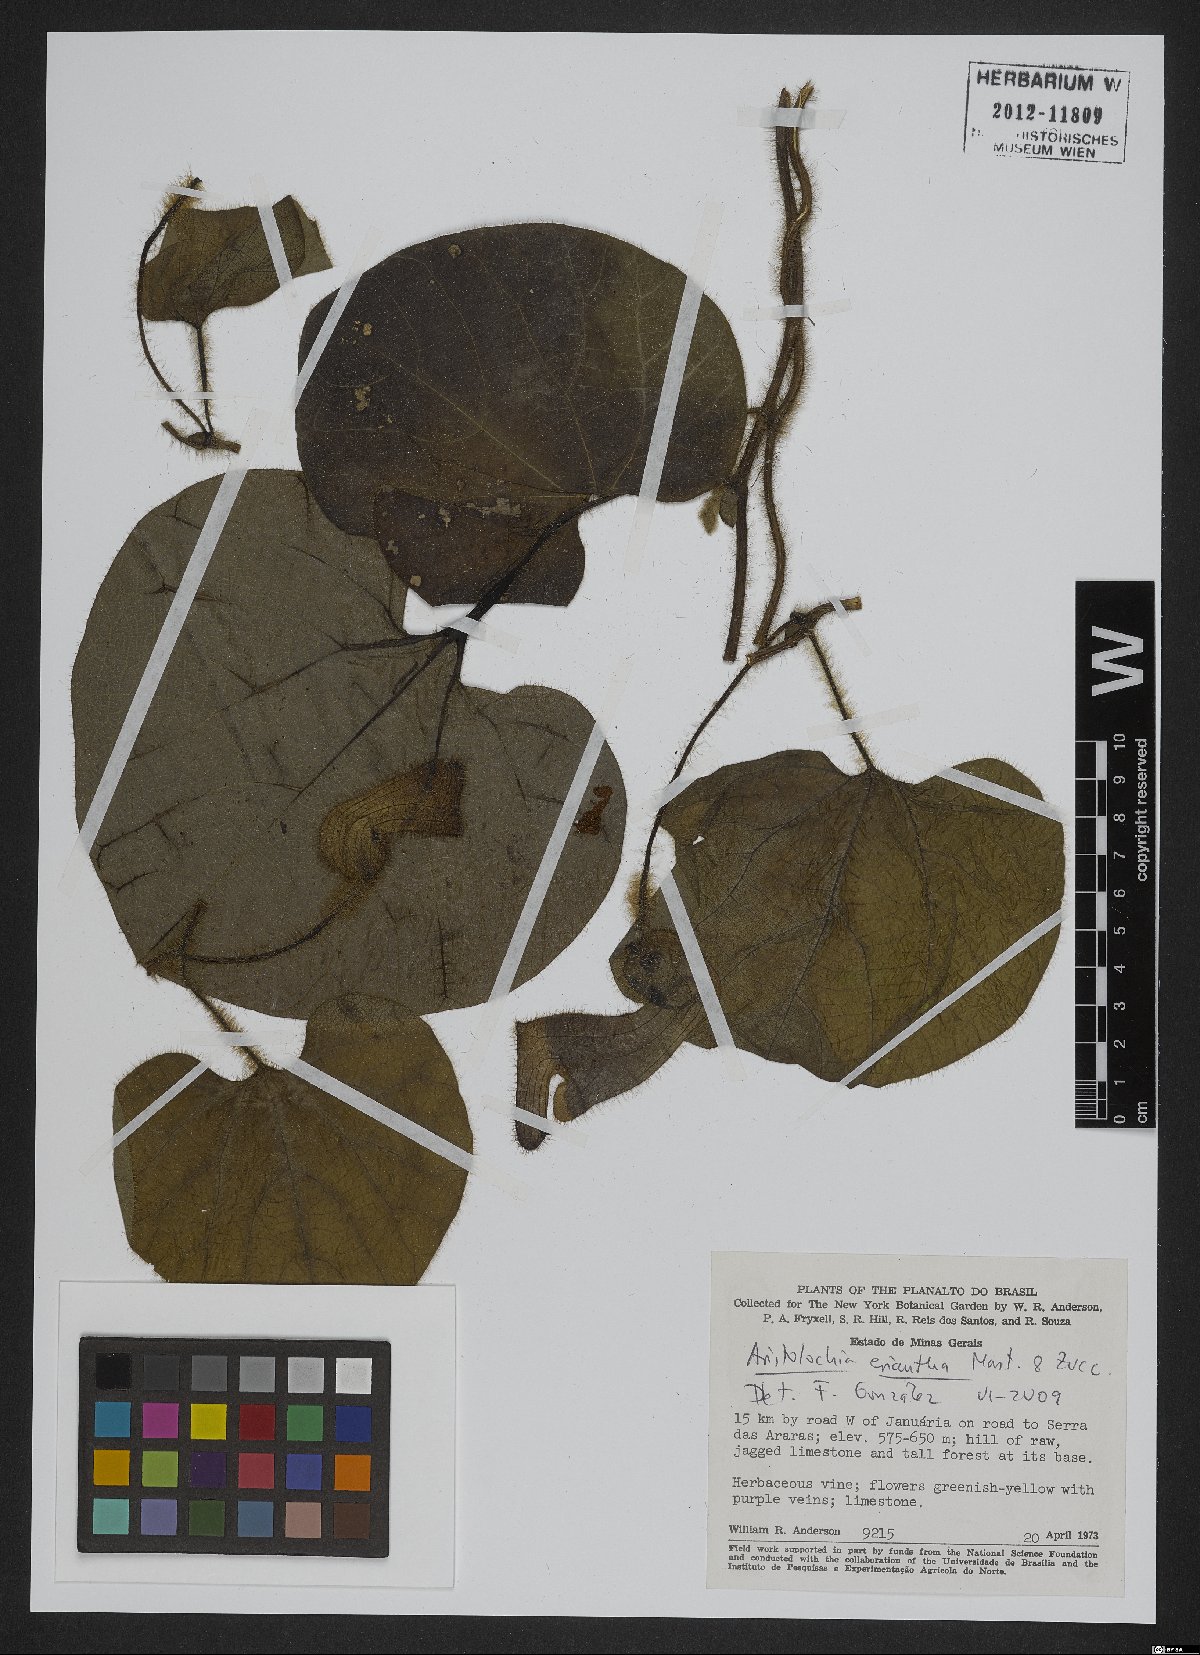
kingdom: Plantae
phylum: Tracheophyta
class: Magnoliopsida
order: Piperales
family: Aristolochiaceae
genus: Aristolochia
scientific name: Aristolochia eriantha
